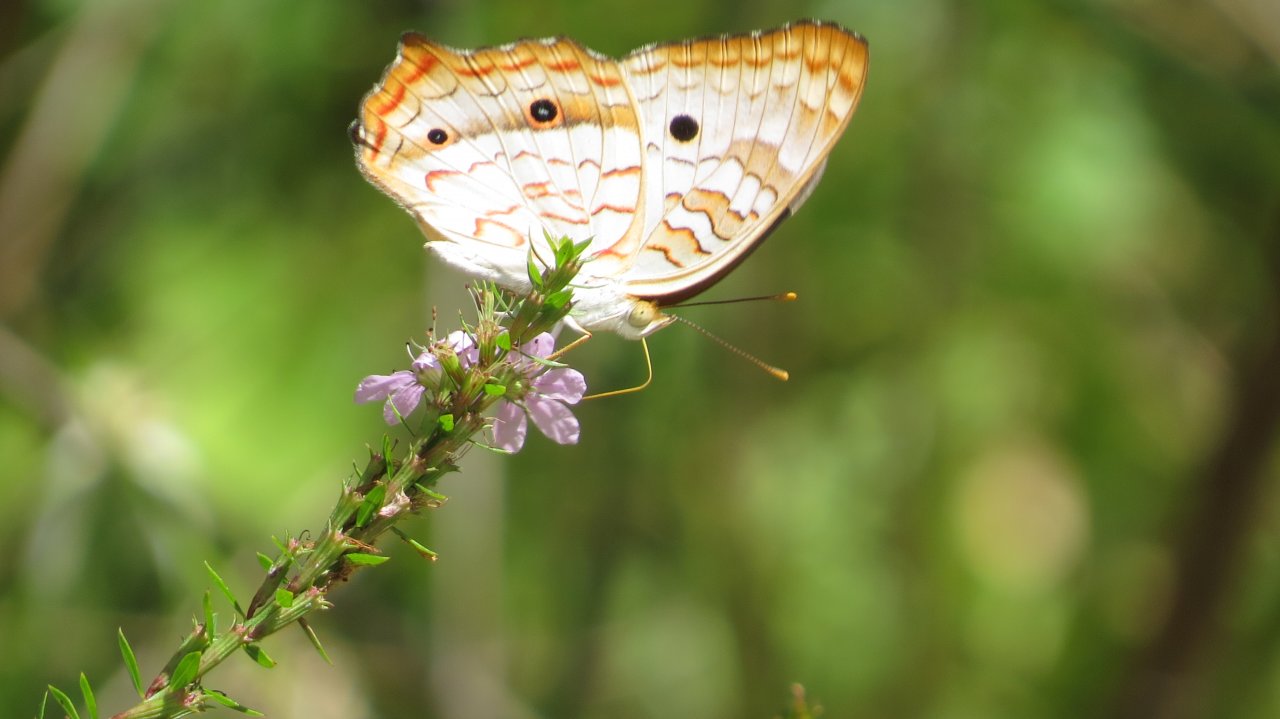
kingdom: Animalia
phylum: Arthropoda
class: Insecta
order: Lepidoptera
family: Nymphalidae
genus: Anartia
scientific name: Anartia jatrophae
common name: White Peacock
